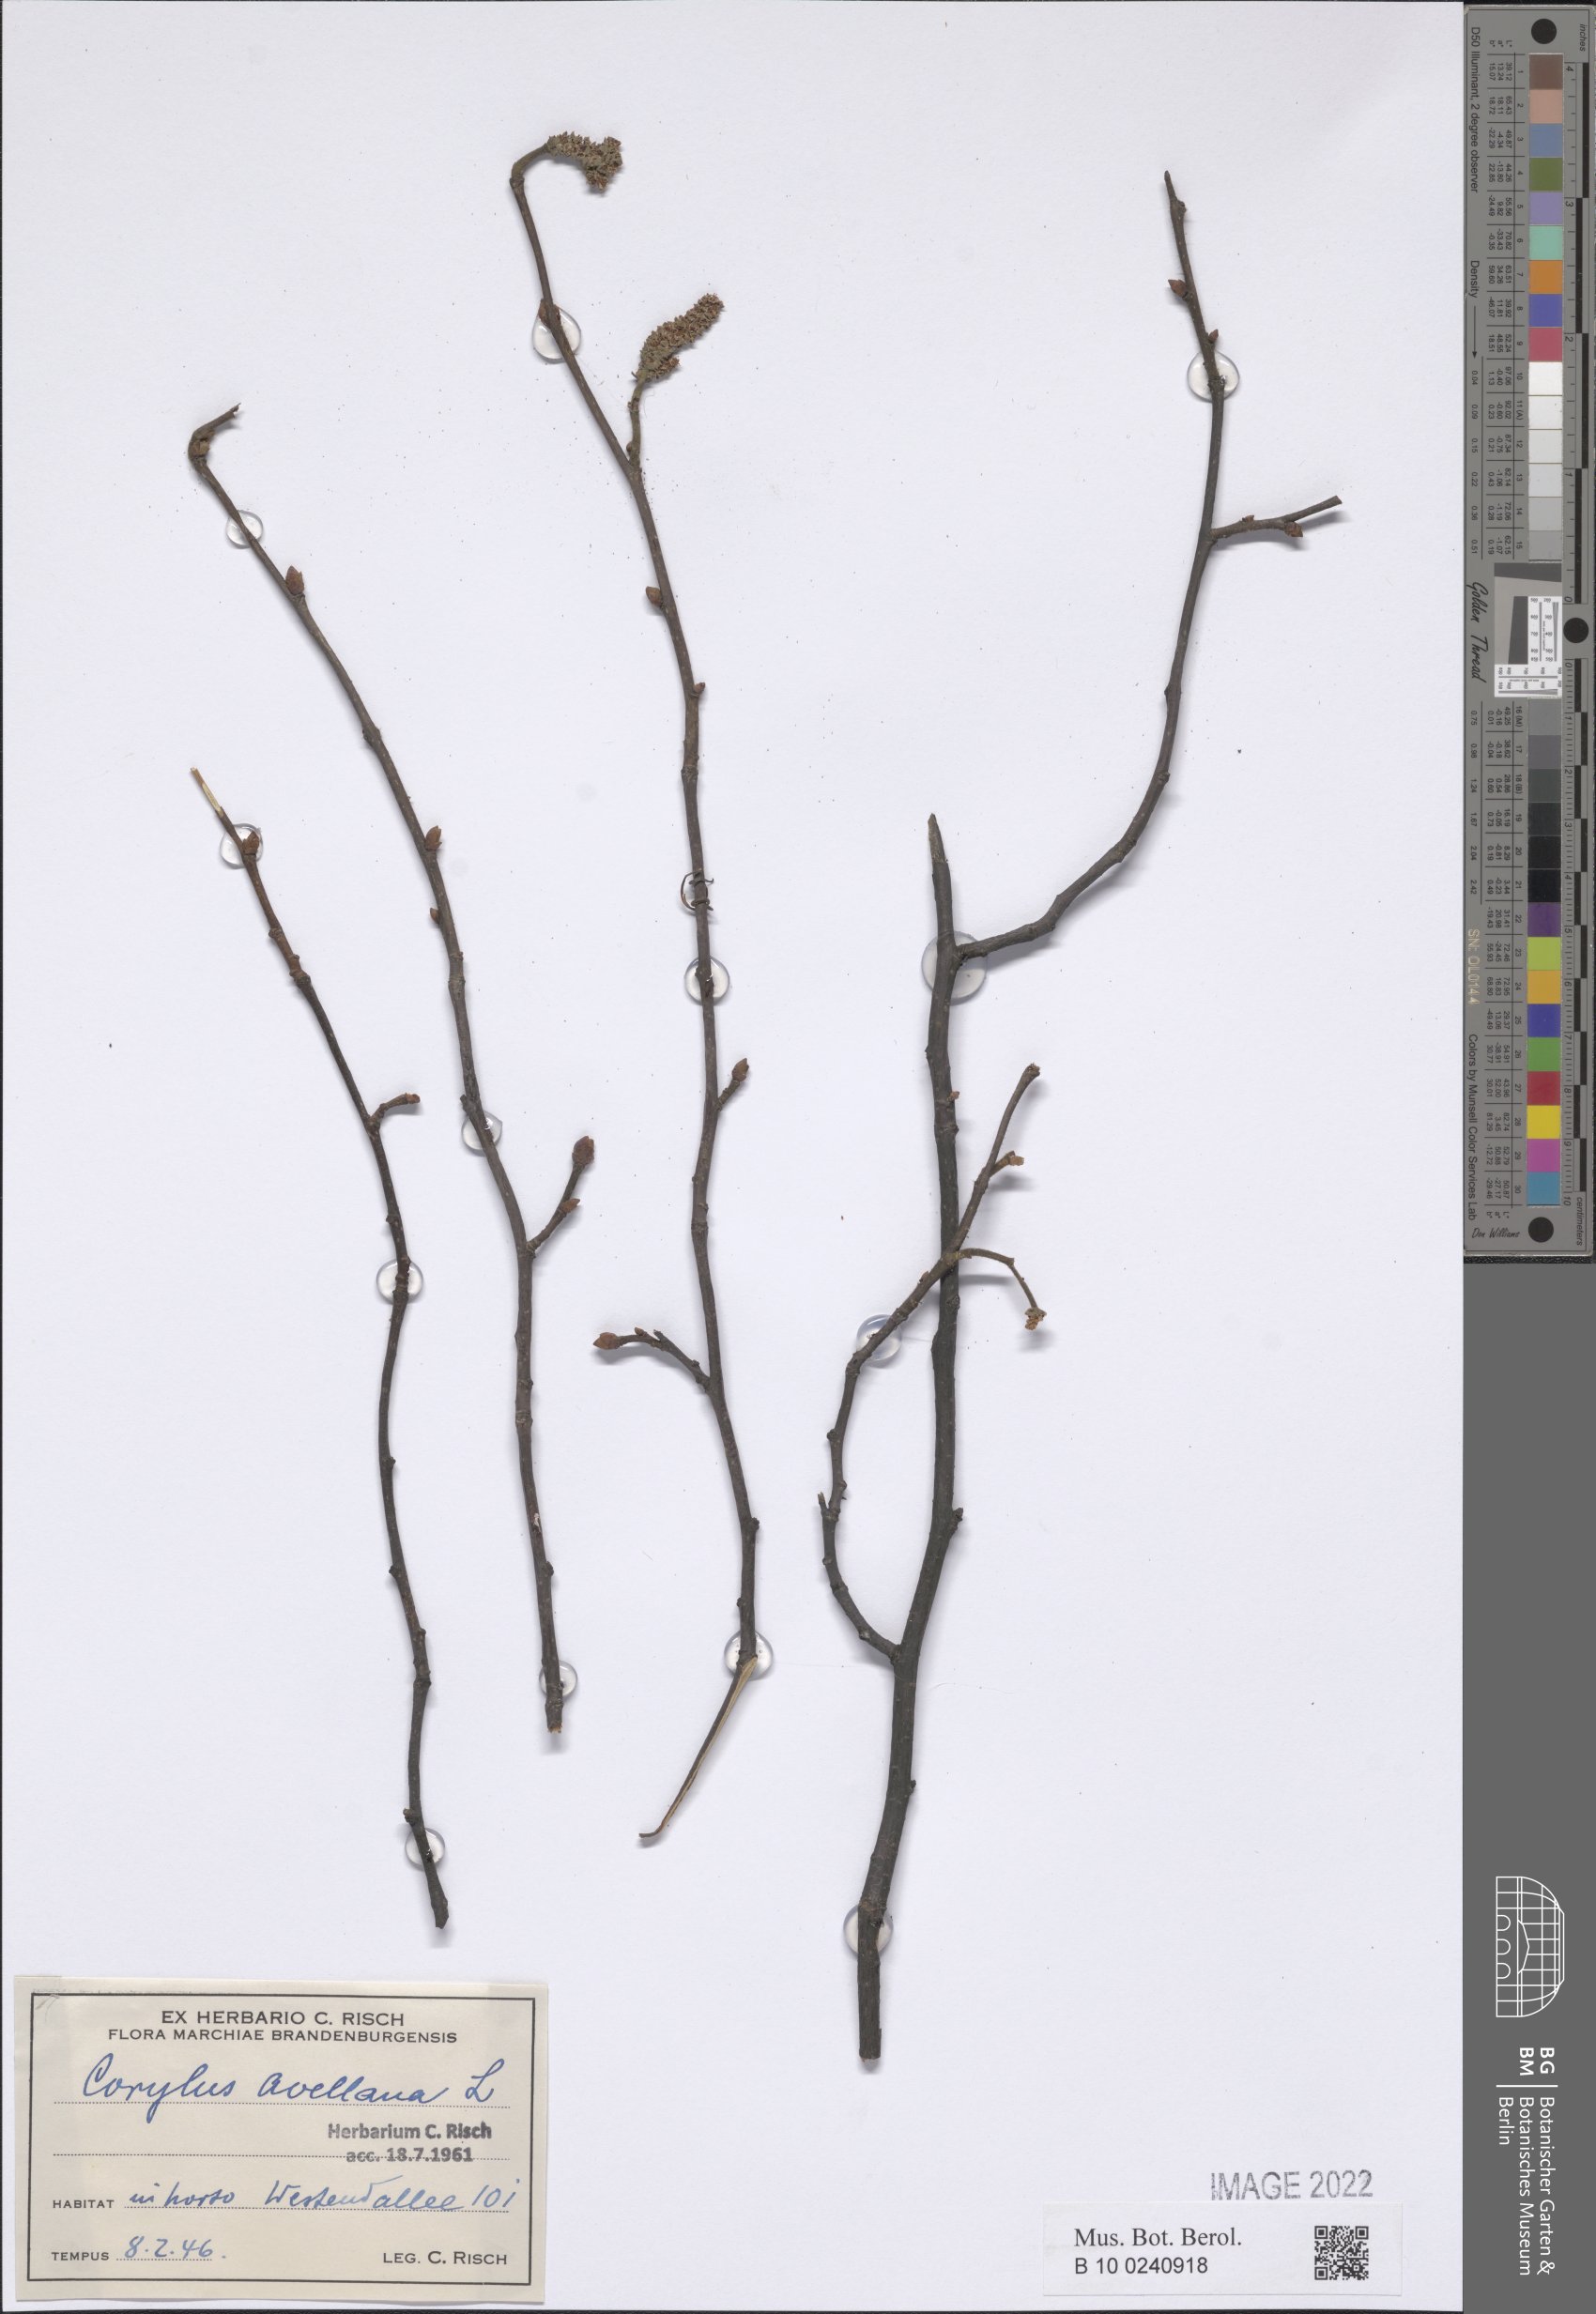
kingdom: Plantae
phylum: Tracheophyta
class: Magnoliopsida
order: Lamiales
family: Scrophulariaceae
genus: Buddleja
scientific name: Buddleja globosa
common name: Orange-ball-tree
